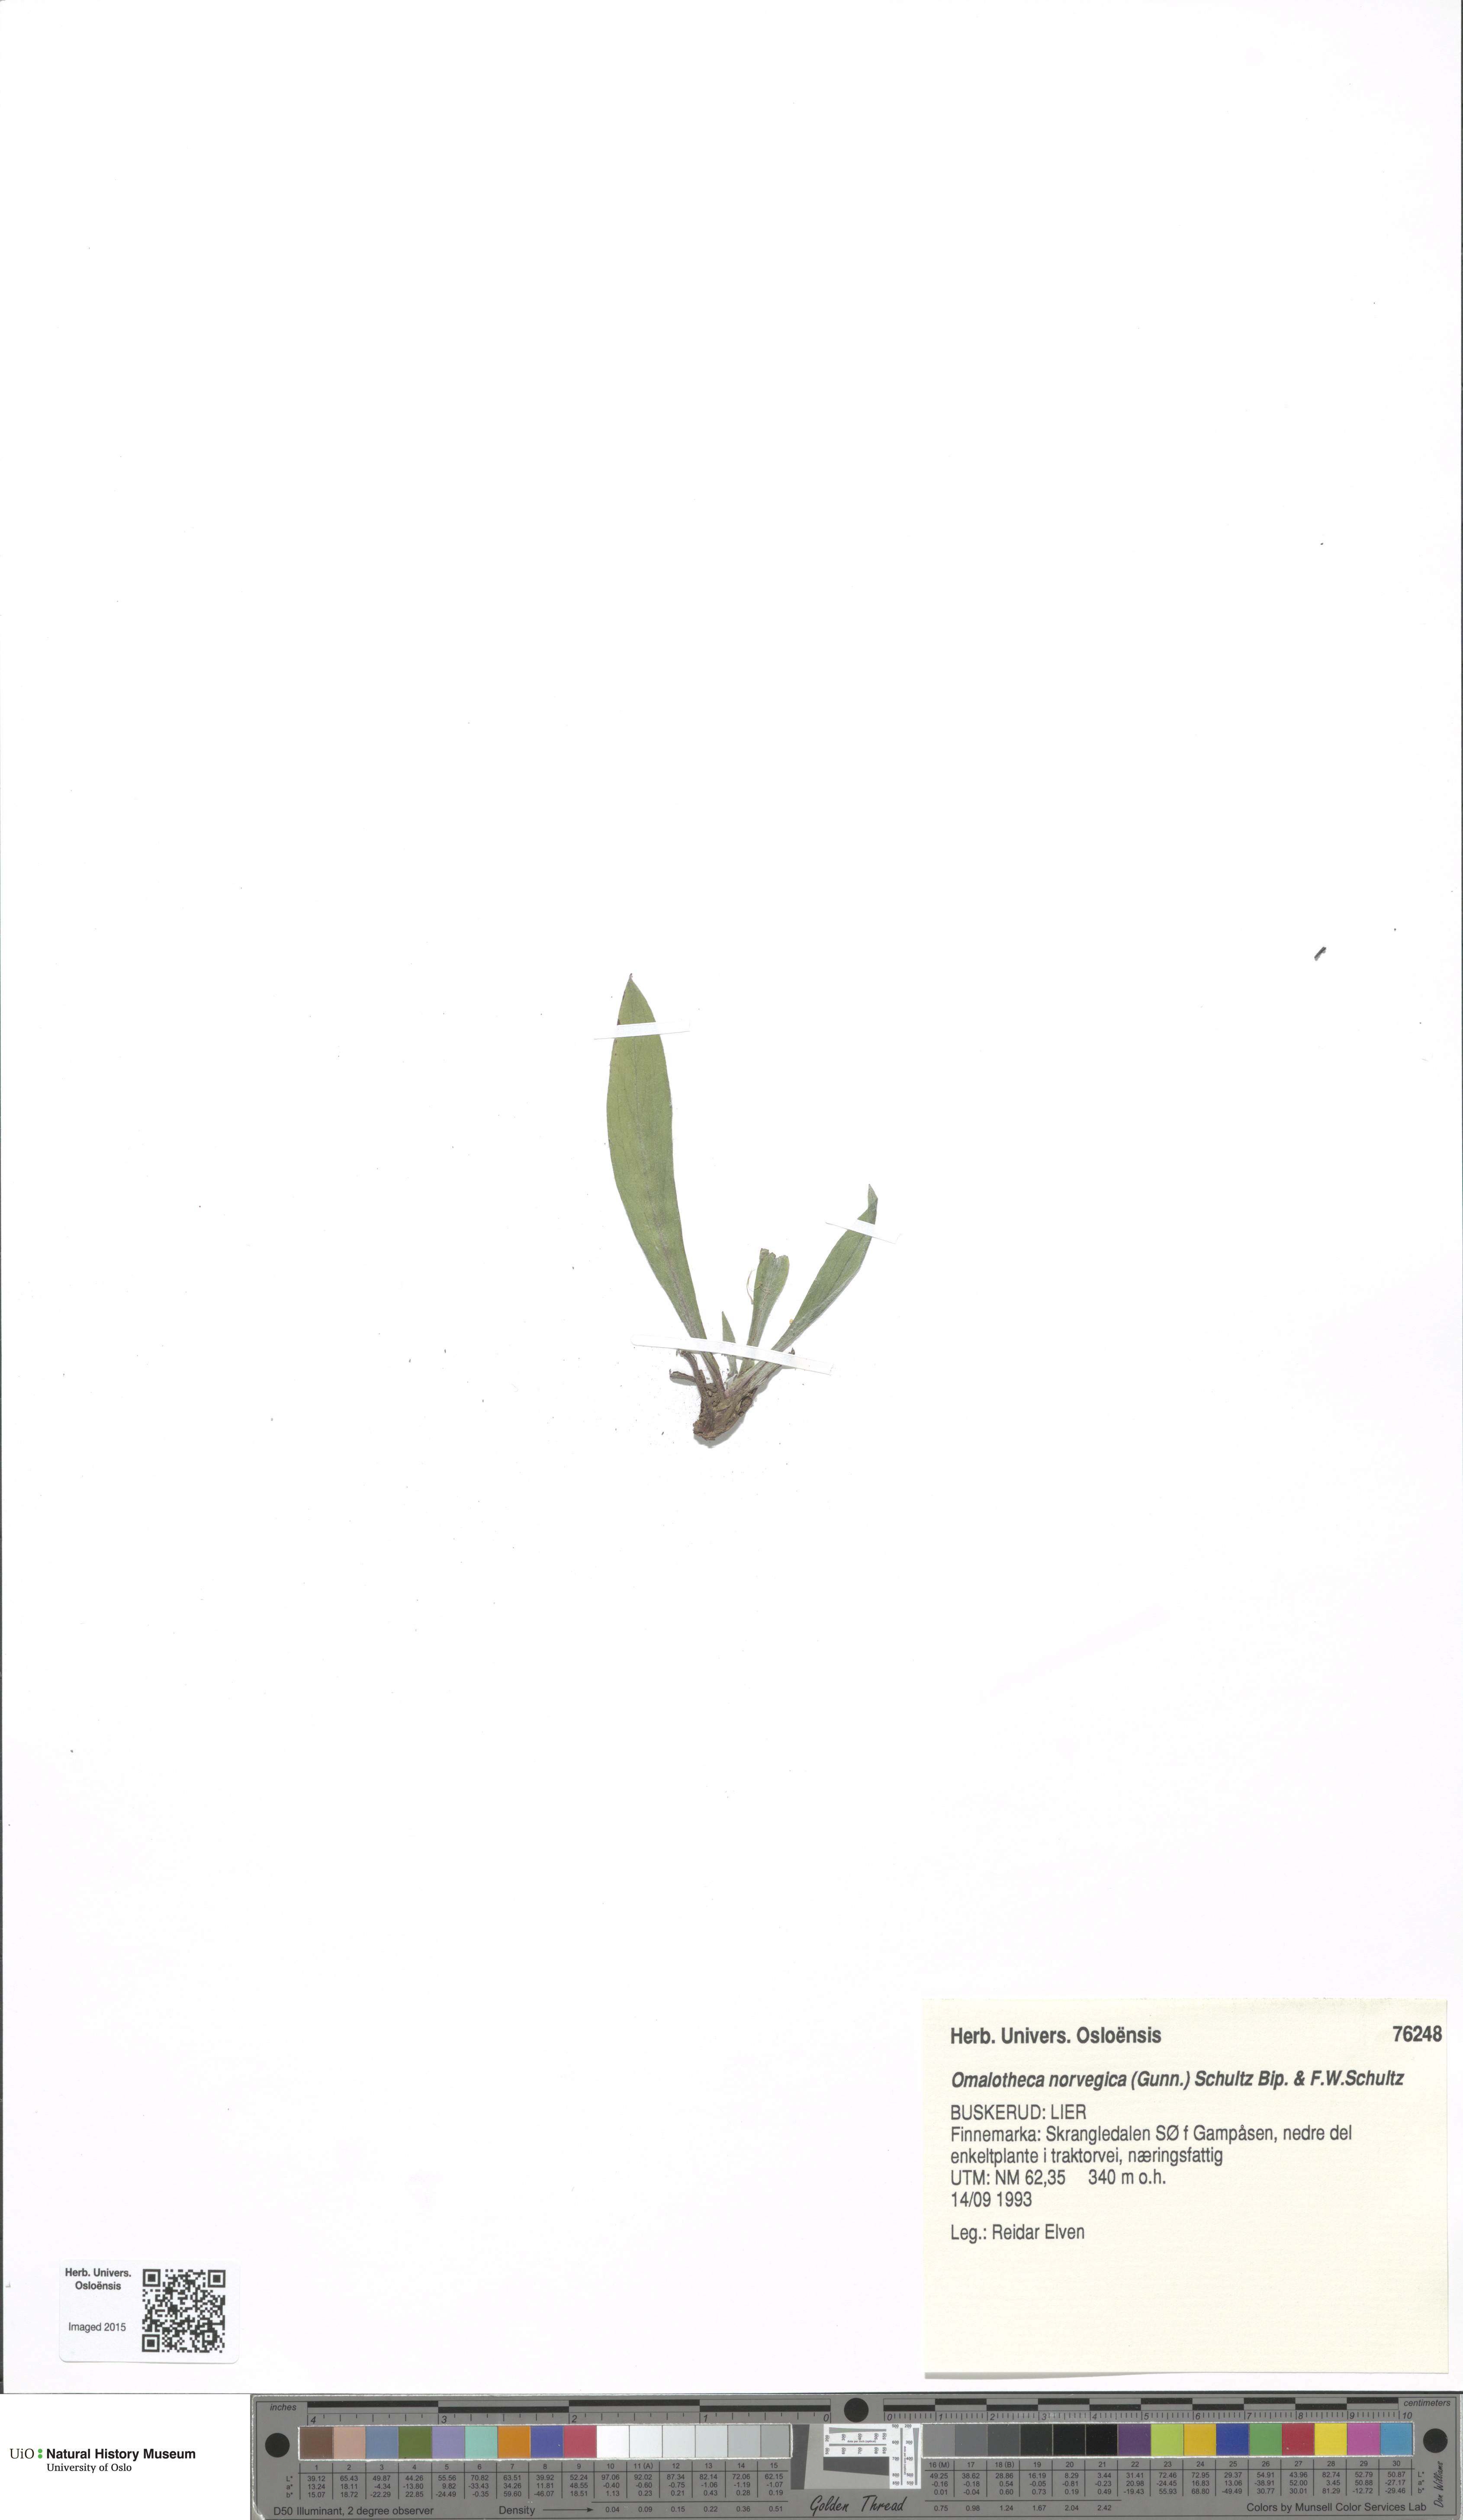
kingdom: Plantae
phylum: Tracheophyta
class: Magnoliopsida
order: Asterales
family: Asteraceae
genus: Omalotheca
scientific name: Omalotheca norvegica
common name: Norwegian arctic-cudweed
